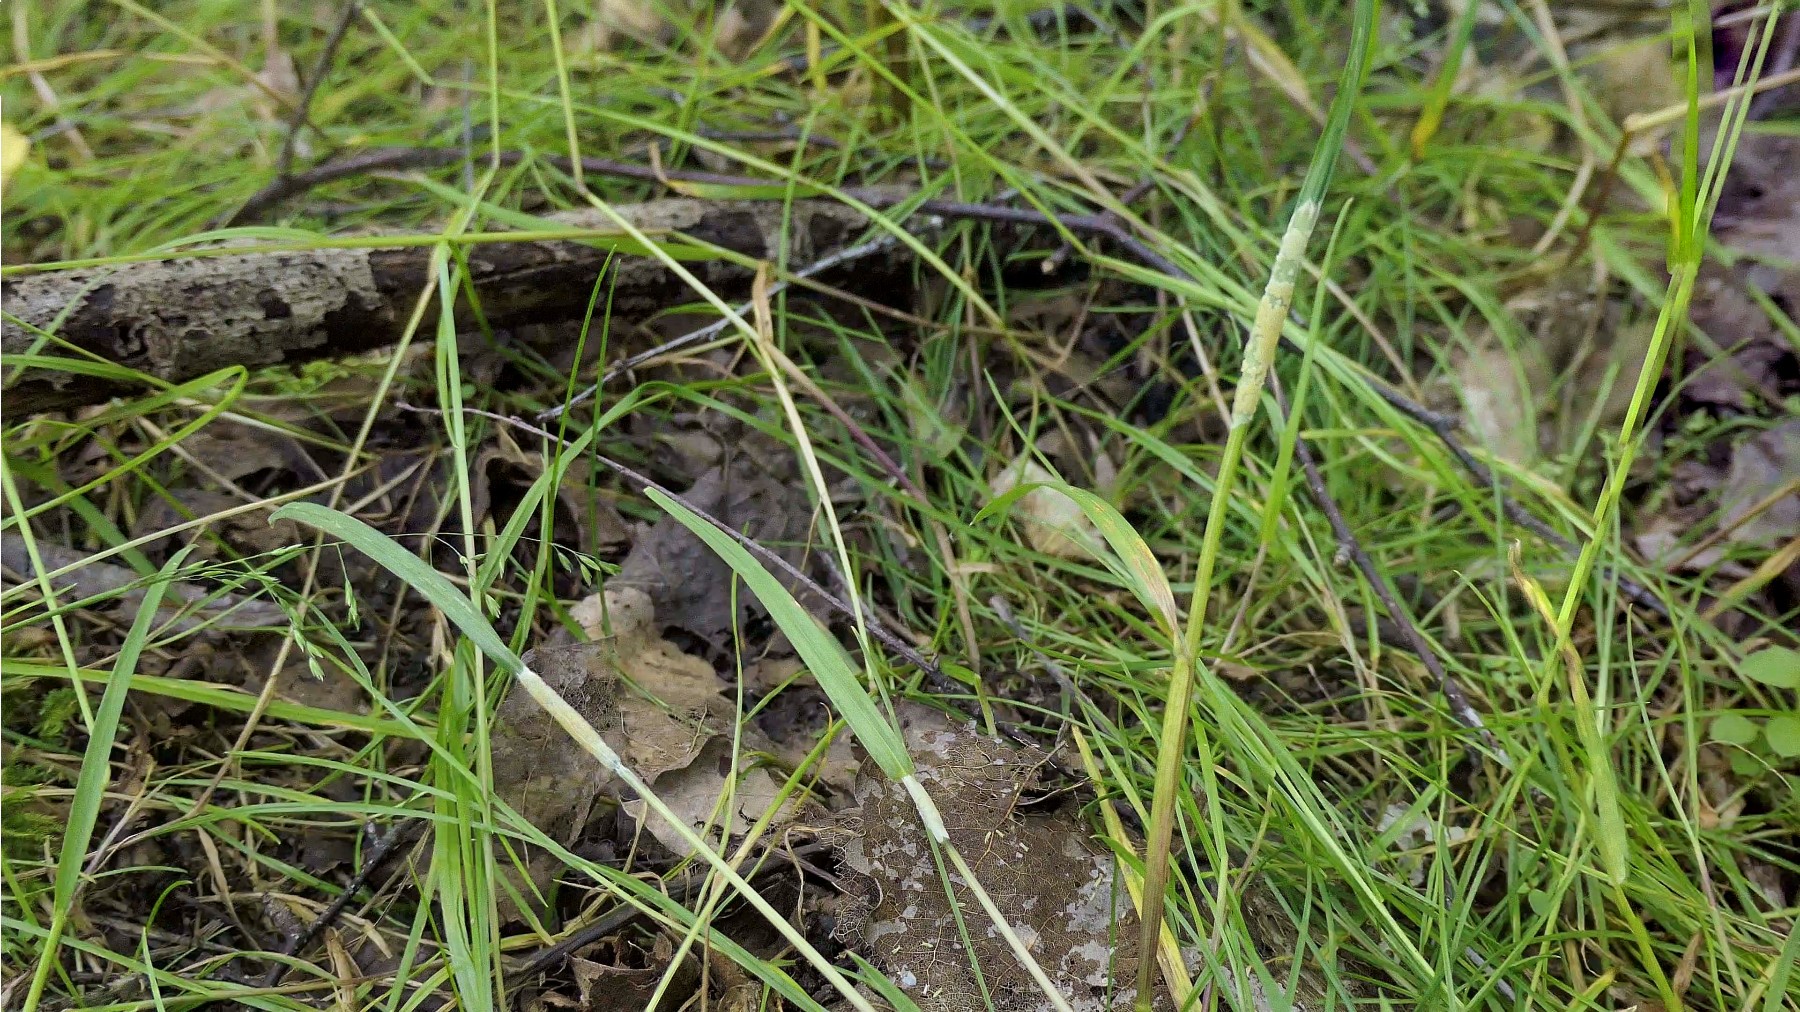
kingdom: Fungi
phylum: Ascomycota
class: Sordariomycetes
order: Hypocreales
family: Clavicipitaceae
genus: Epichloe
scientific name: Epichloe typhina
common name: almindelig kernerør
